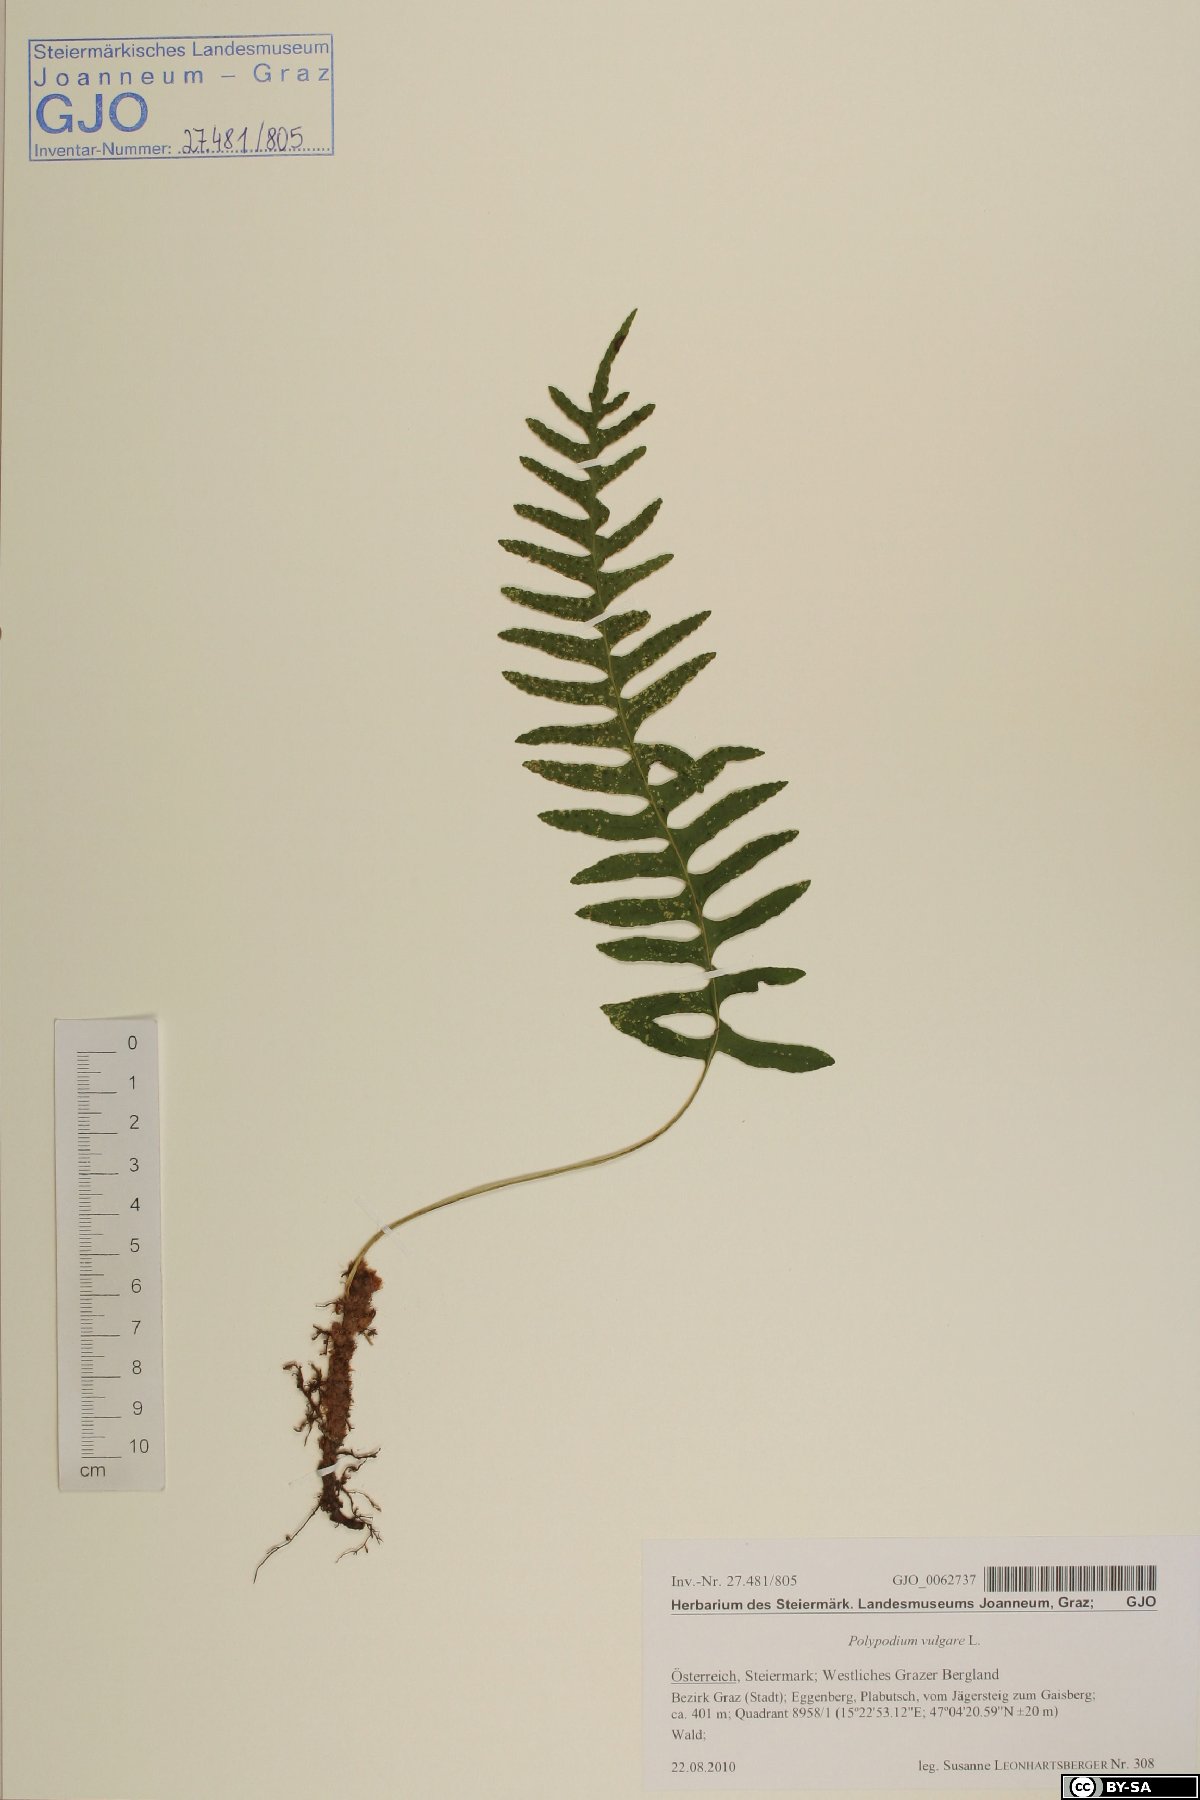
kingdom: Plantae
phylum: Tracheophyta
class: Polypodiopsida
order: Polypodiales
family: Polypodiaceae
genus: Polypodium
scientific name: Polypodium vulgare
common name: Common polypody
